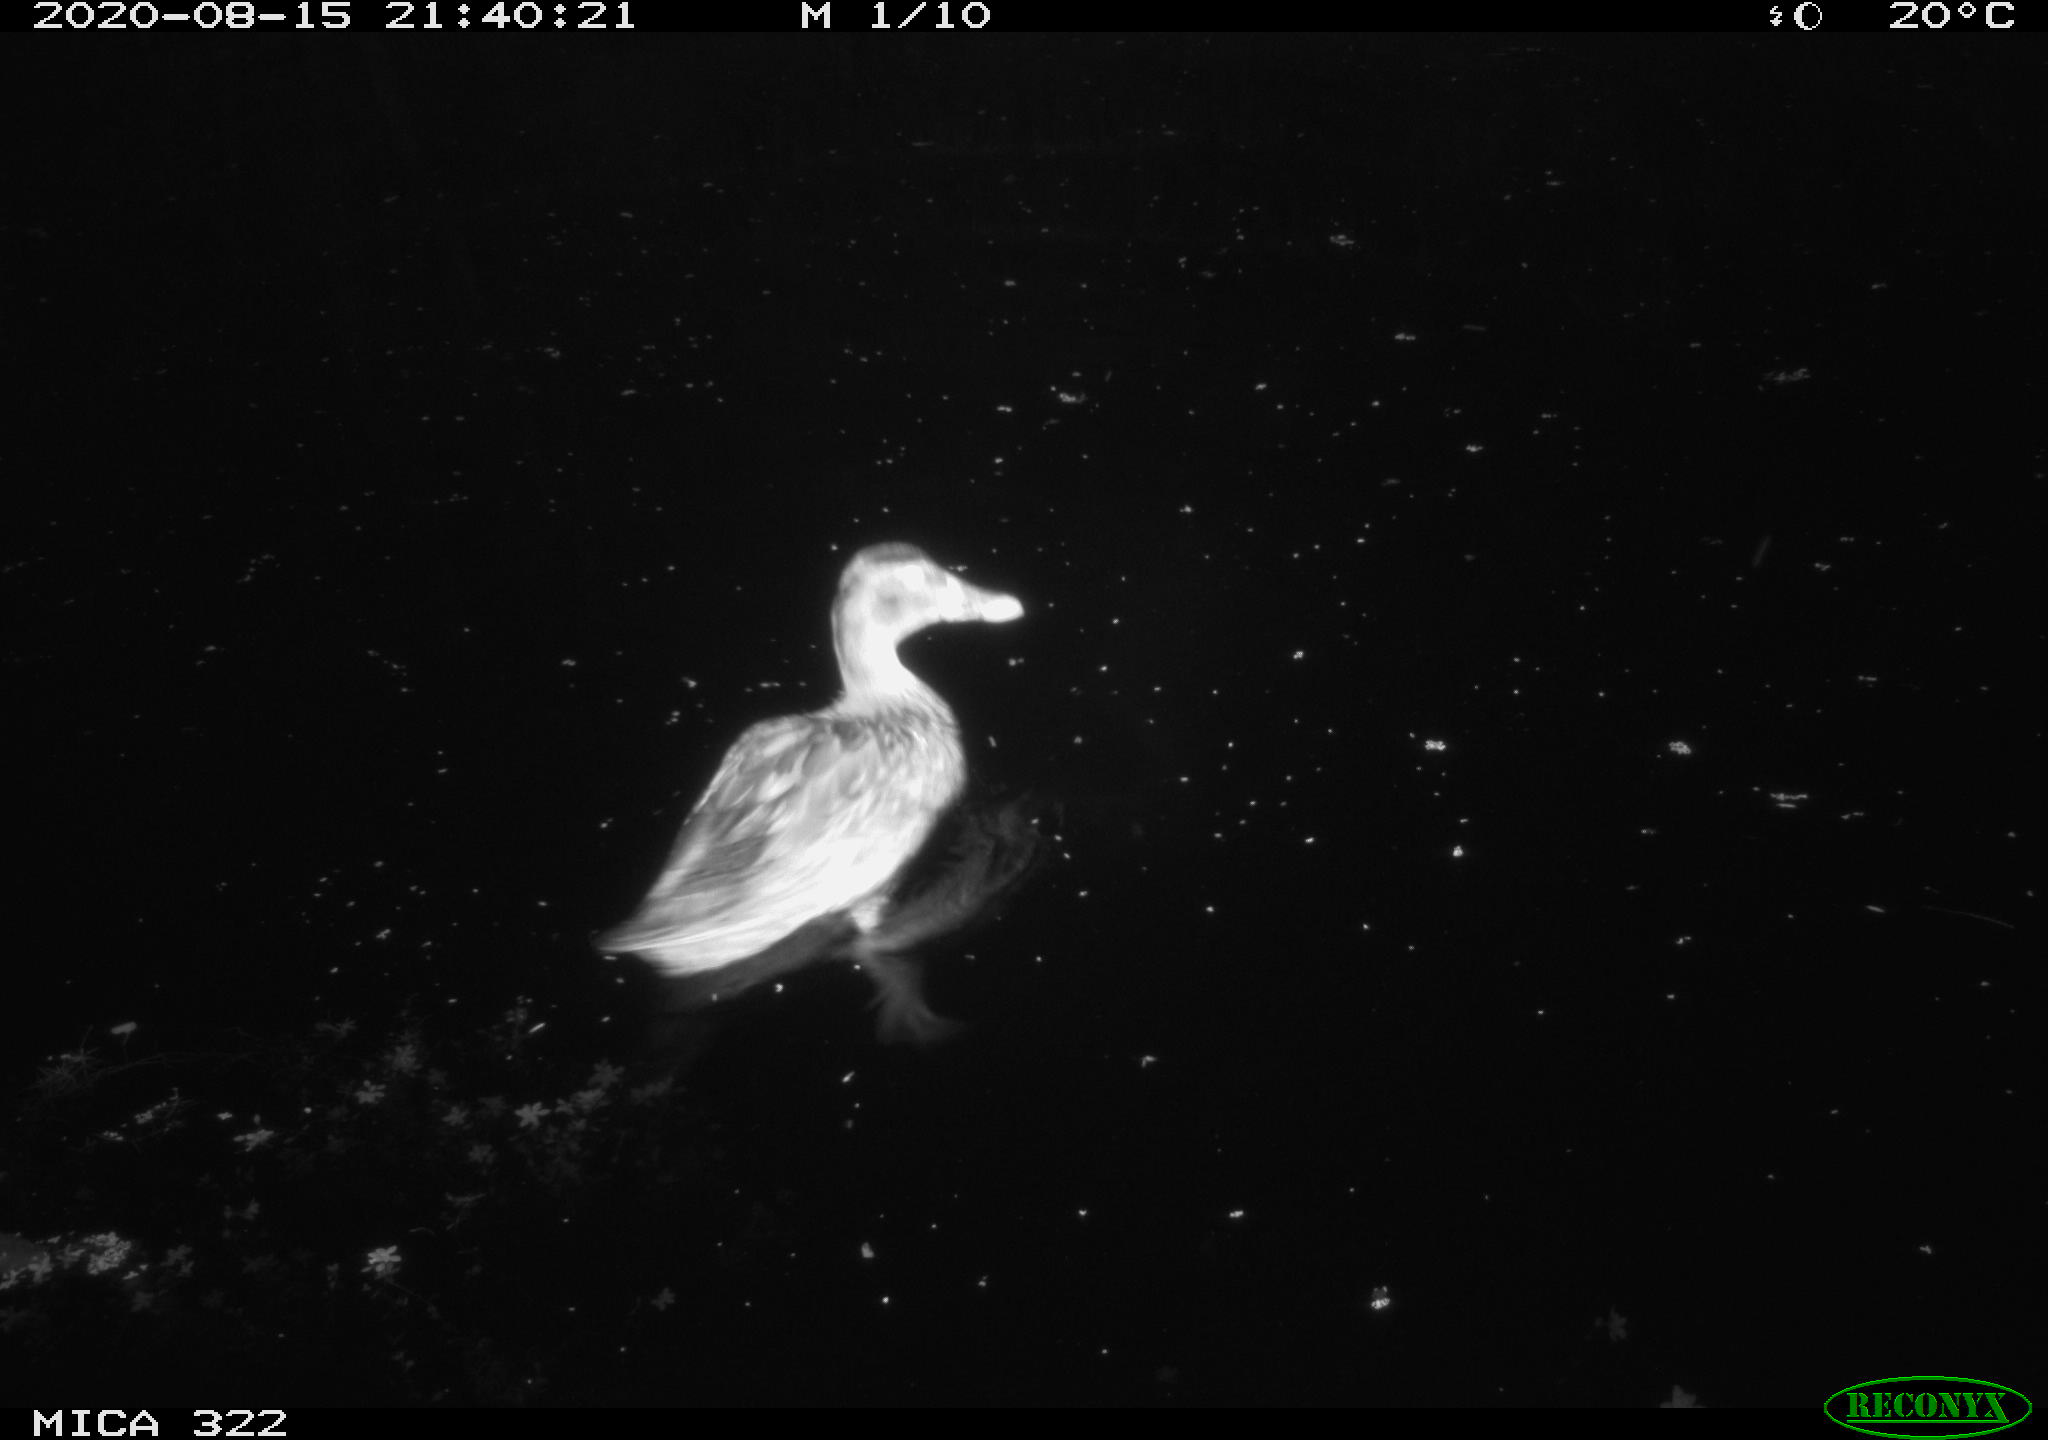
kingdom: Animalia
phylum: Chordata
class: Aves
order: Anseriformes
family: Anatidae
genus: Anas
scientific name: Anas platyrhynchos
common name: Mallard
